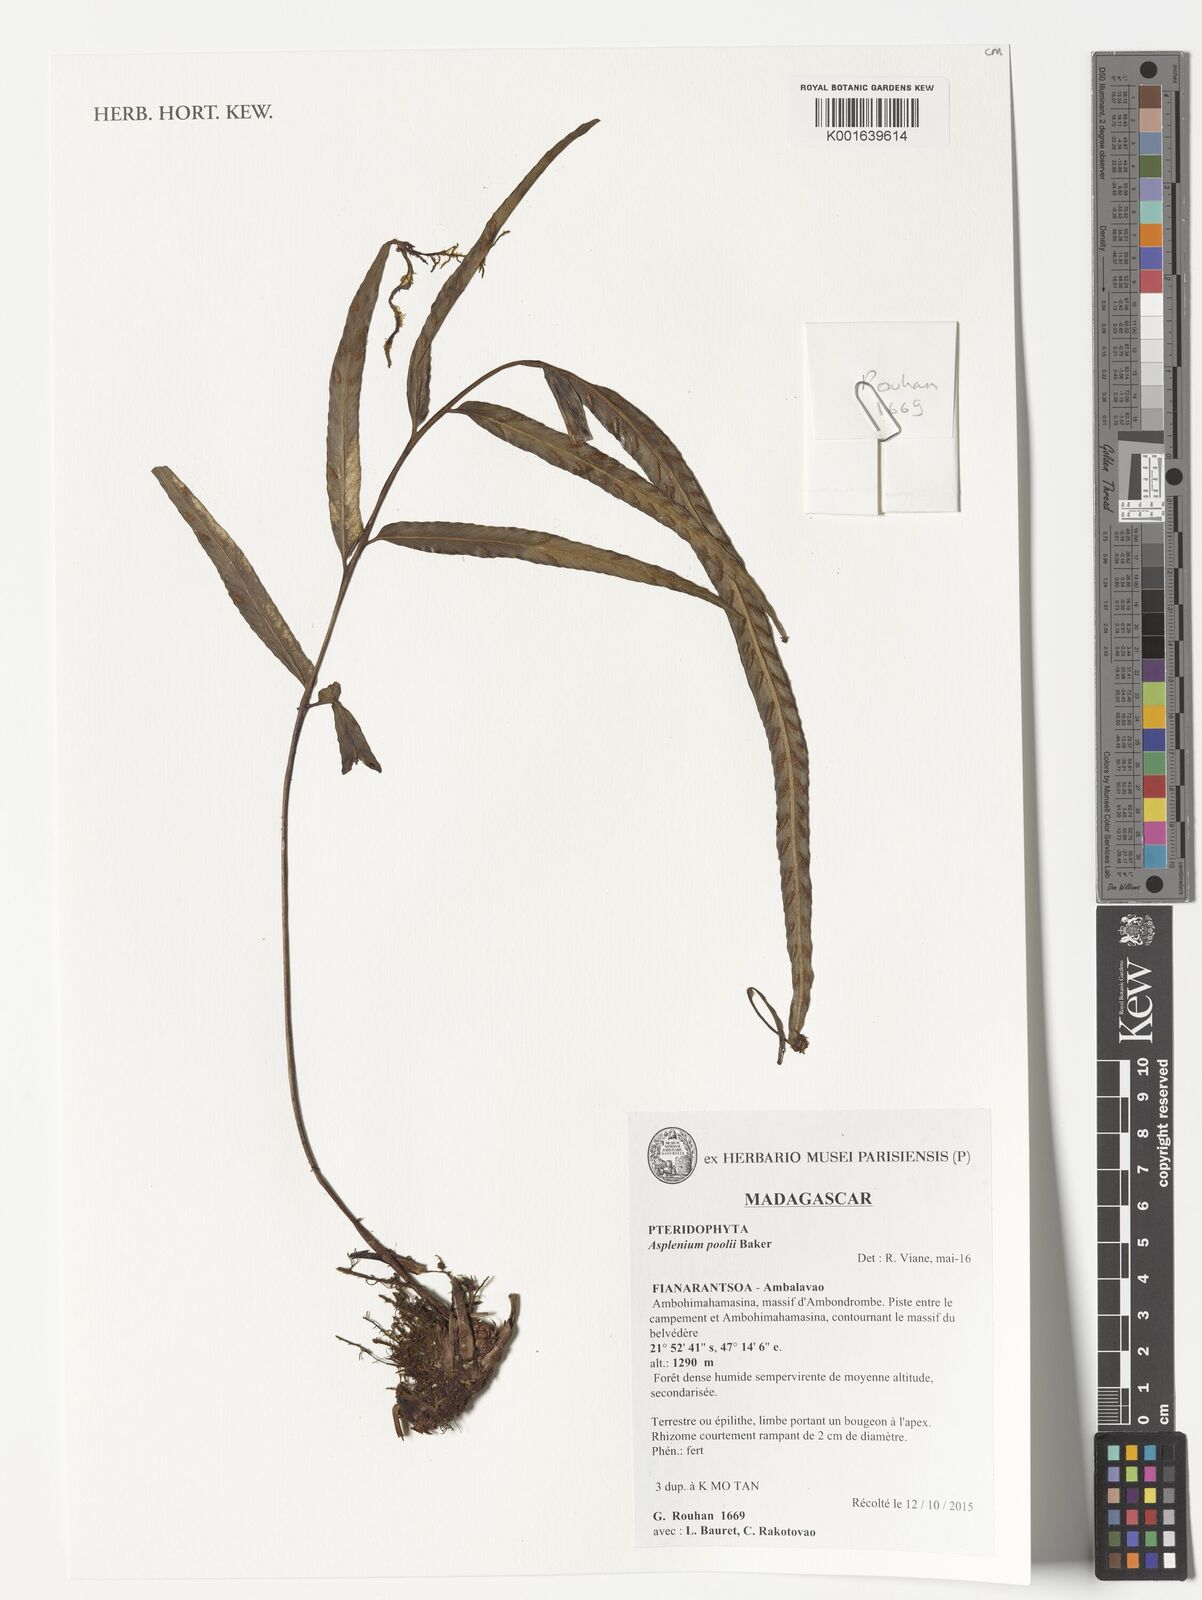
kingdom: Plantae
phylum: Tracheophyta
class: Polypodiopsida
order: Polypodiales
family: Aspleniaceae
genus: Asplenium
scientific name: Asplenium poolii
